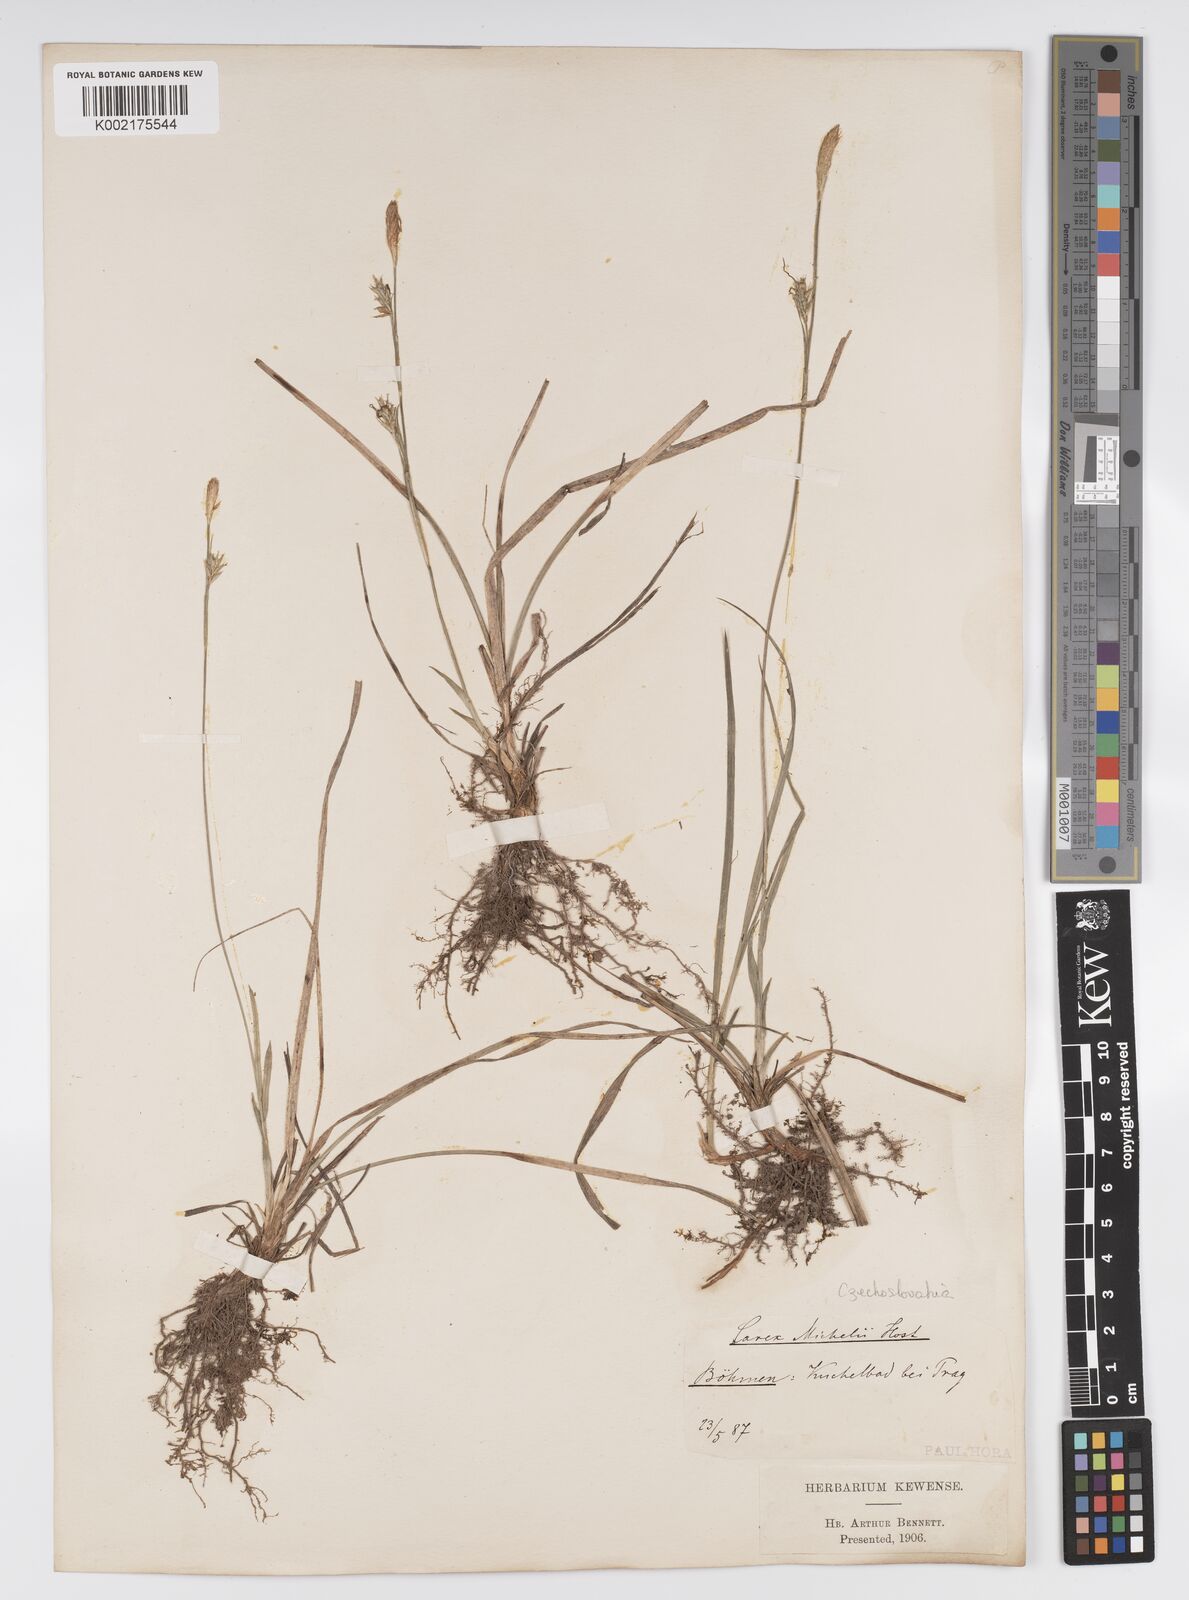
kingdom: Plantae
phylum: Tracheophyta
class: Liliopsida
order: Poales
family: Cyperaceae
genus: Carex
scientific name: Carex michelii
